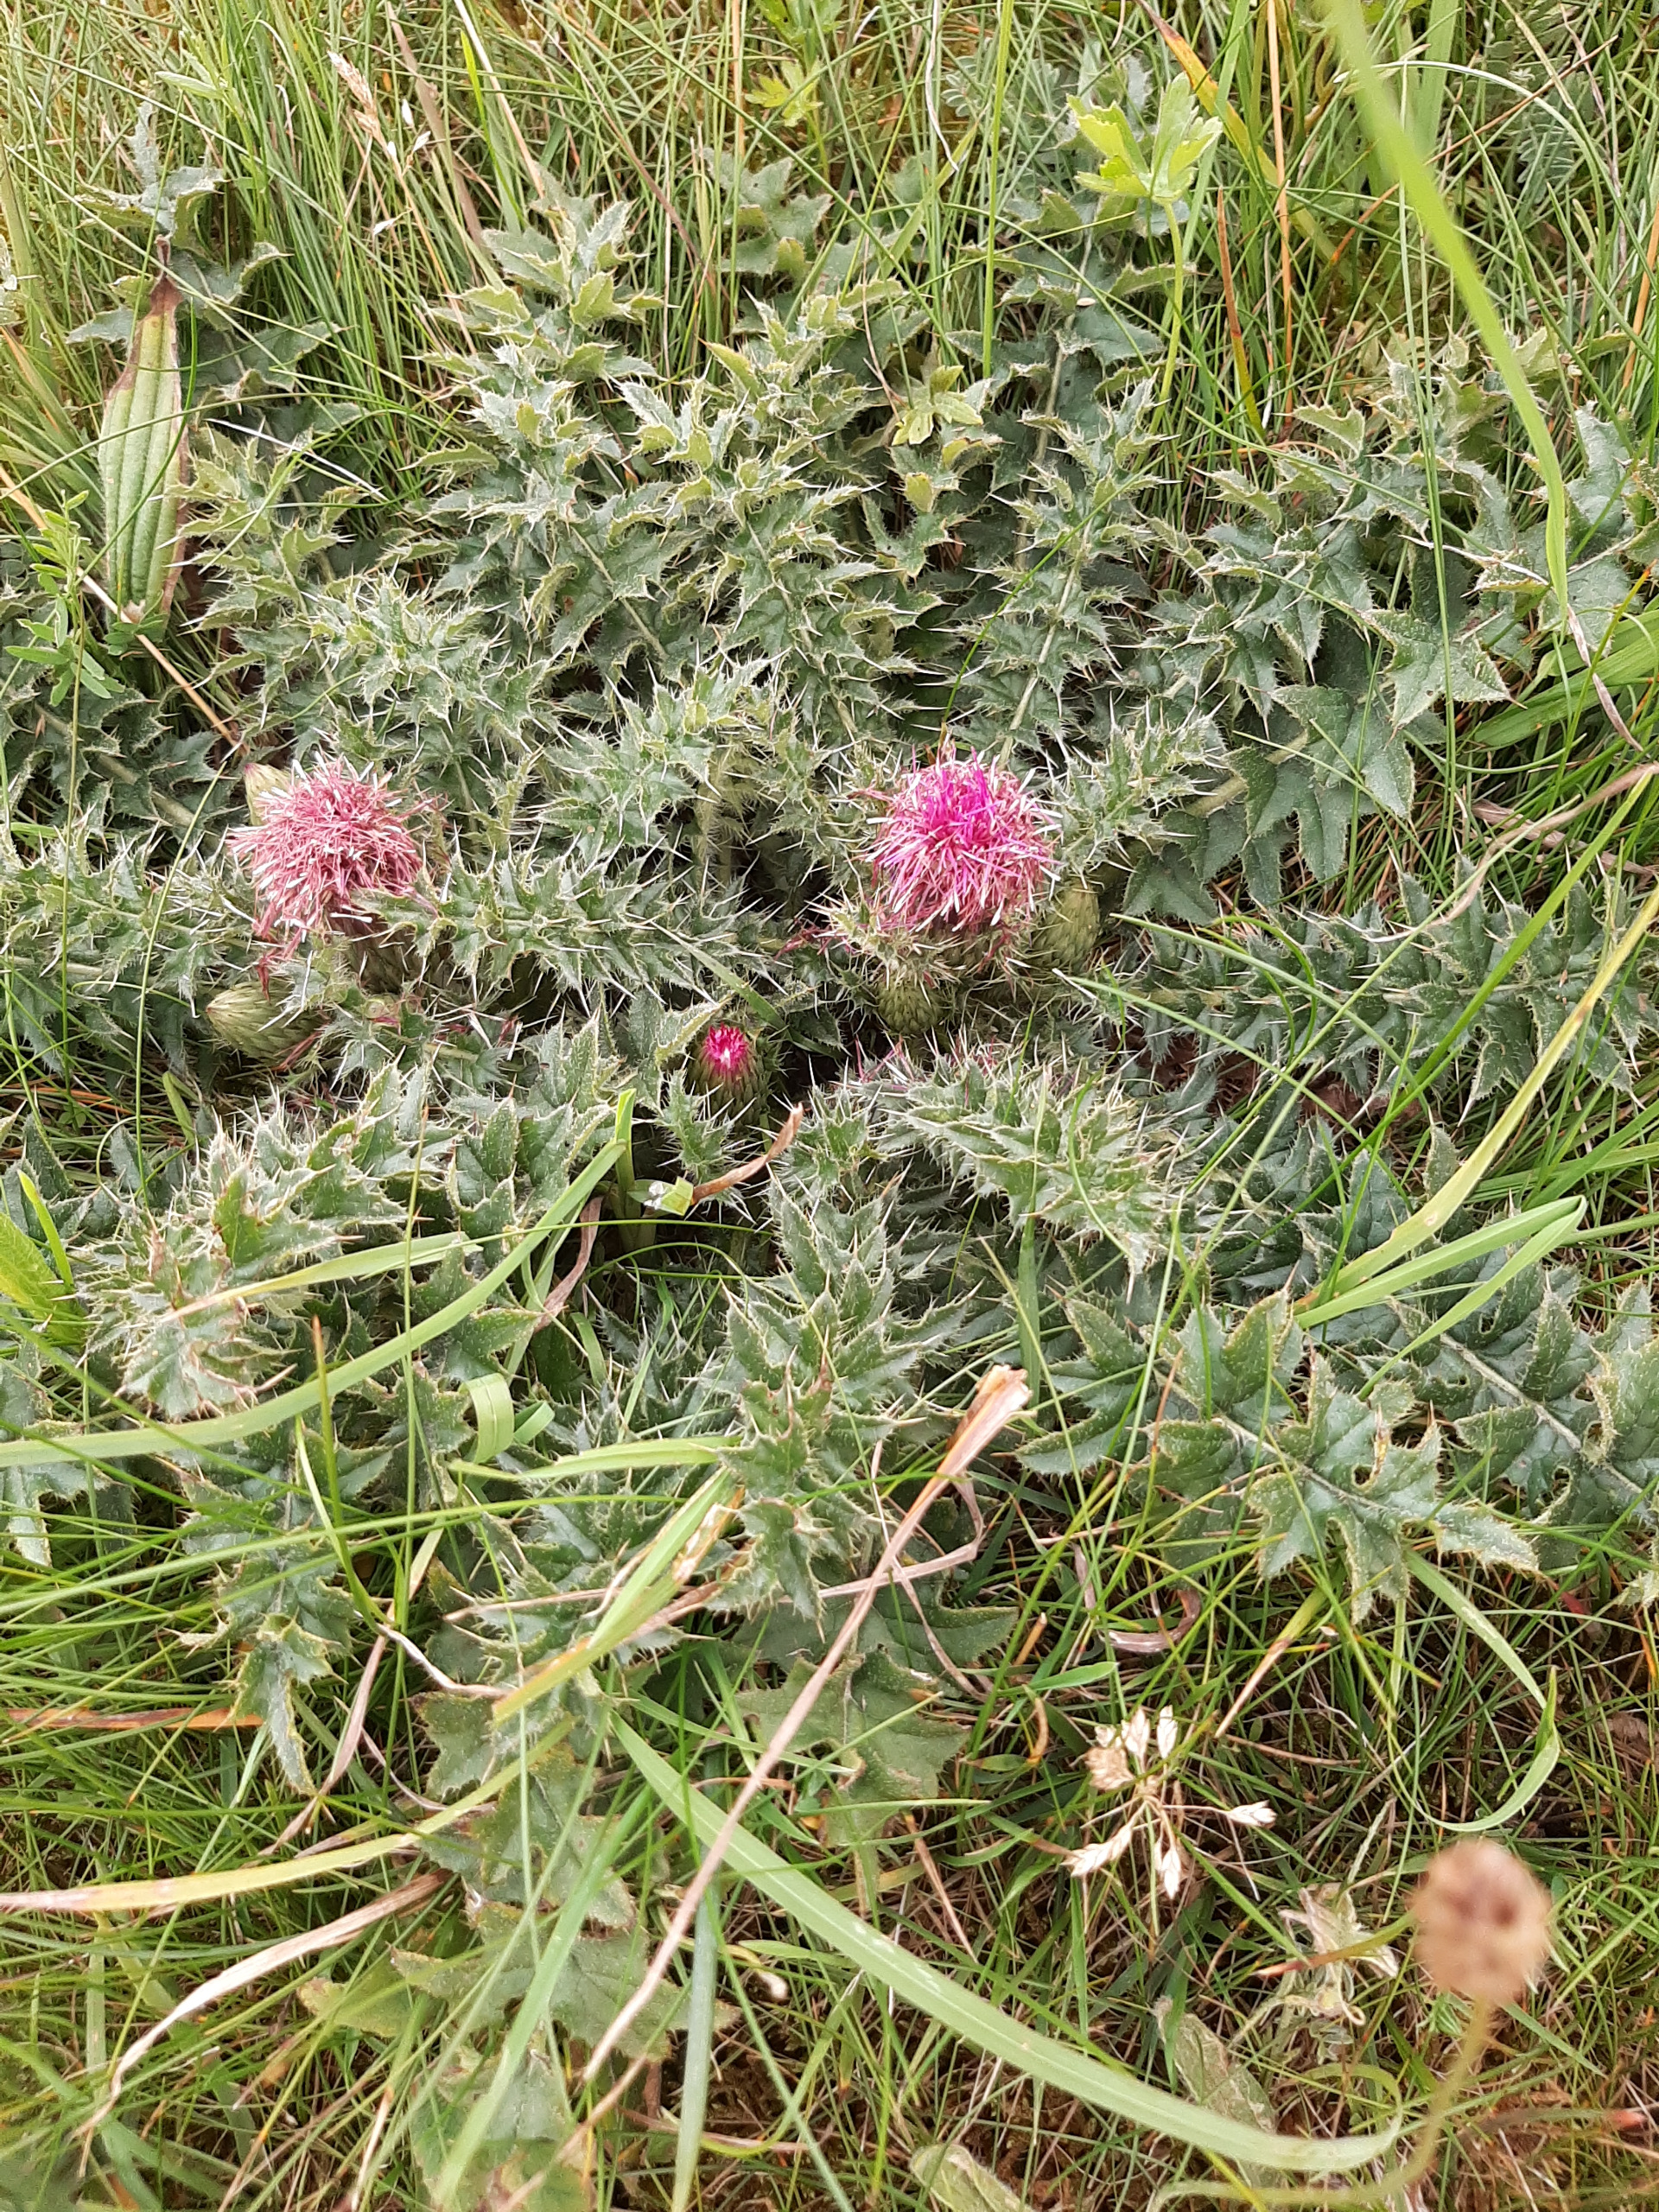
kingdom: Plantae
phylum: Tracheophyta
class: Magnoliopsida
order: Asterales
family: Asteraceae
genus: Cirsium
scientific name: Cirsium acaule
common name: Lav tidsel
